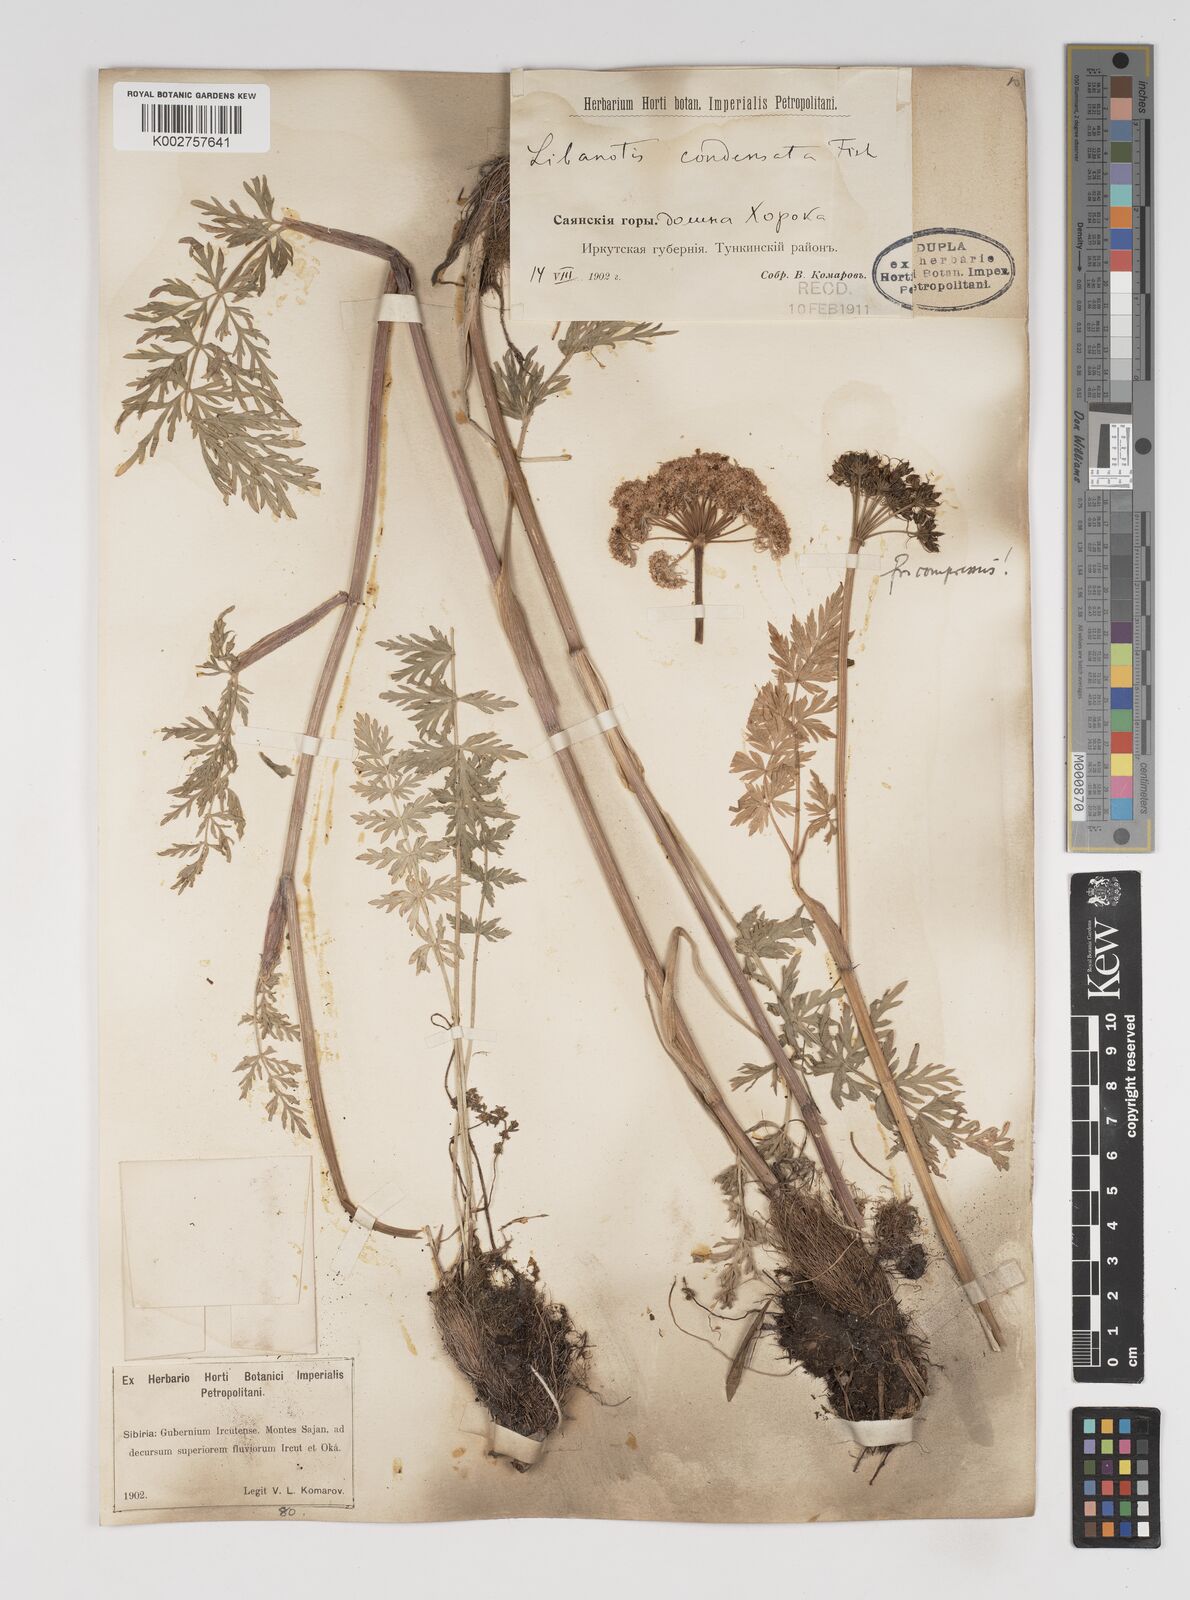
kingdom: Plantae
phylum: Tracheophyta
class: Magnoliopsida
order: Apiales
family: Apiaceae
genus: Seseli
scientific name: Seseli condensatum
